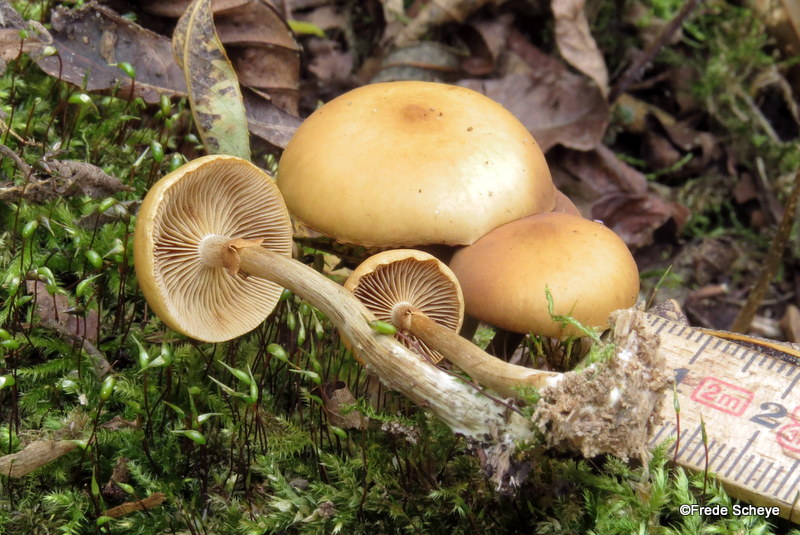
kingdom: Fungi
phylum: Basidiomycota
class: Agaricomycetes
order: Agaricales
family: Hymenogastraceae
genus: Galerina
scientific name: Galerina marginata
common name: randbæltet hjelmhat
